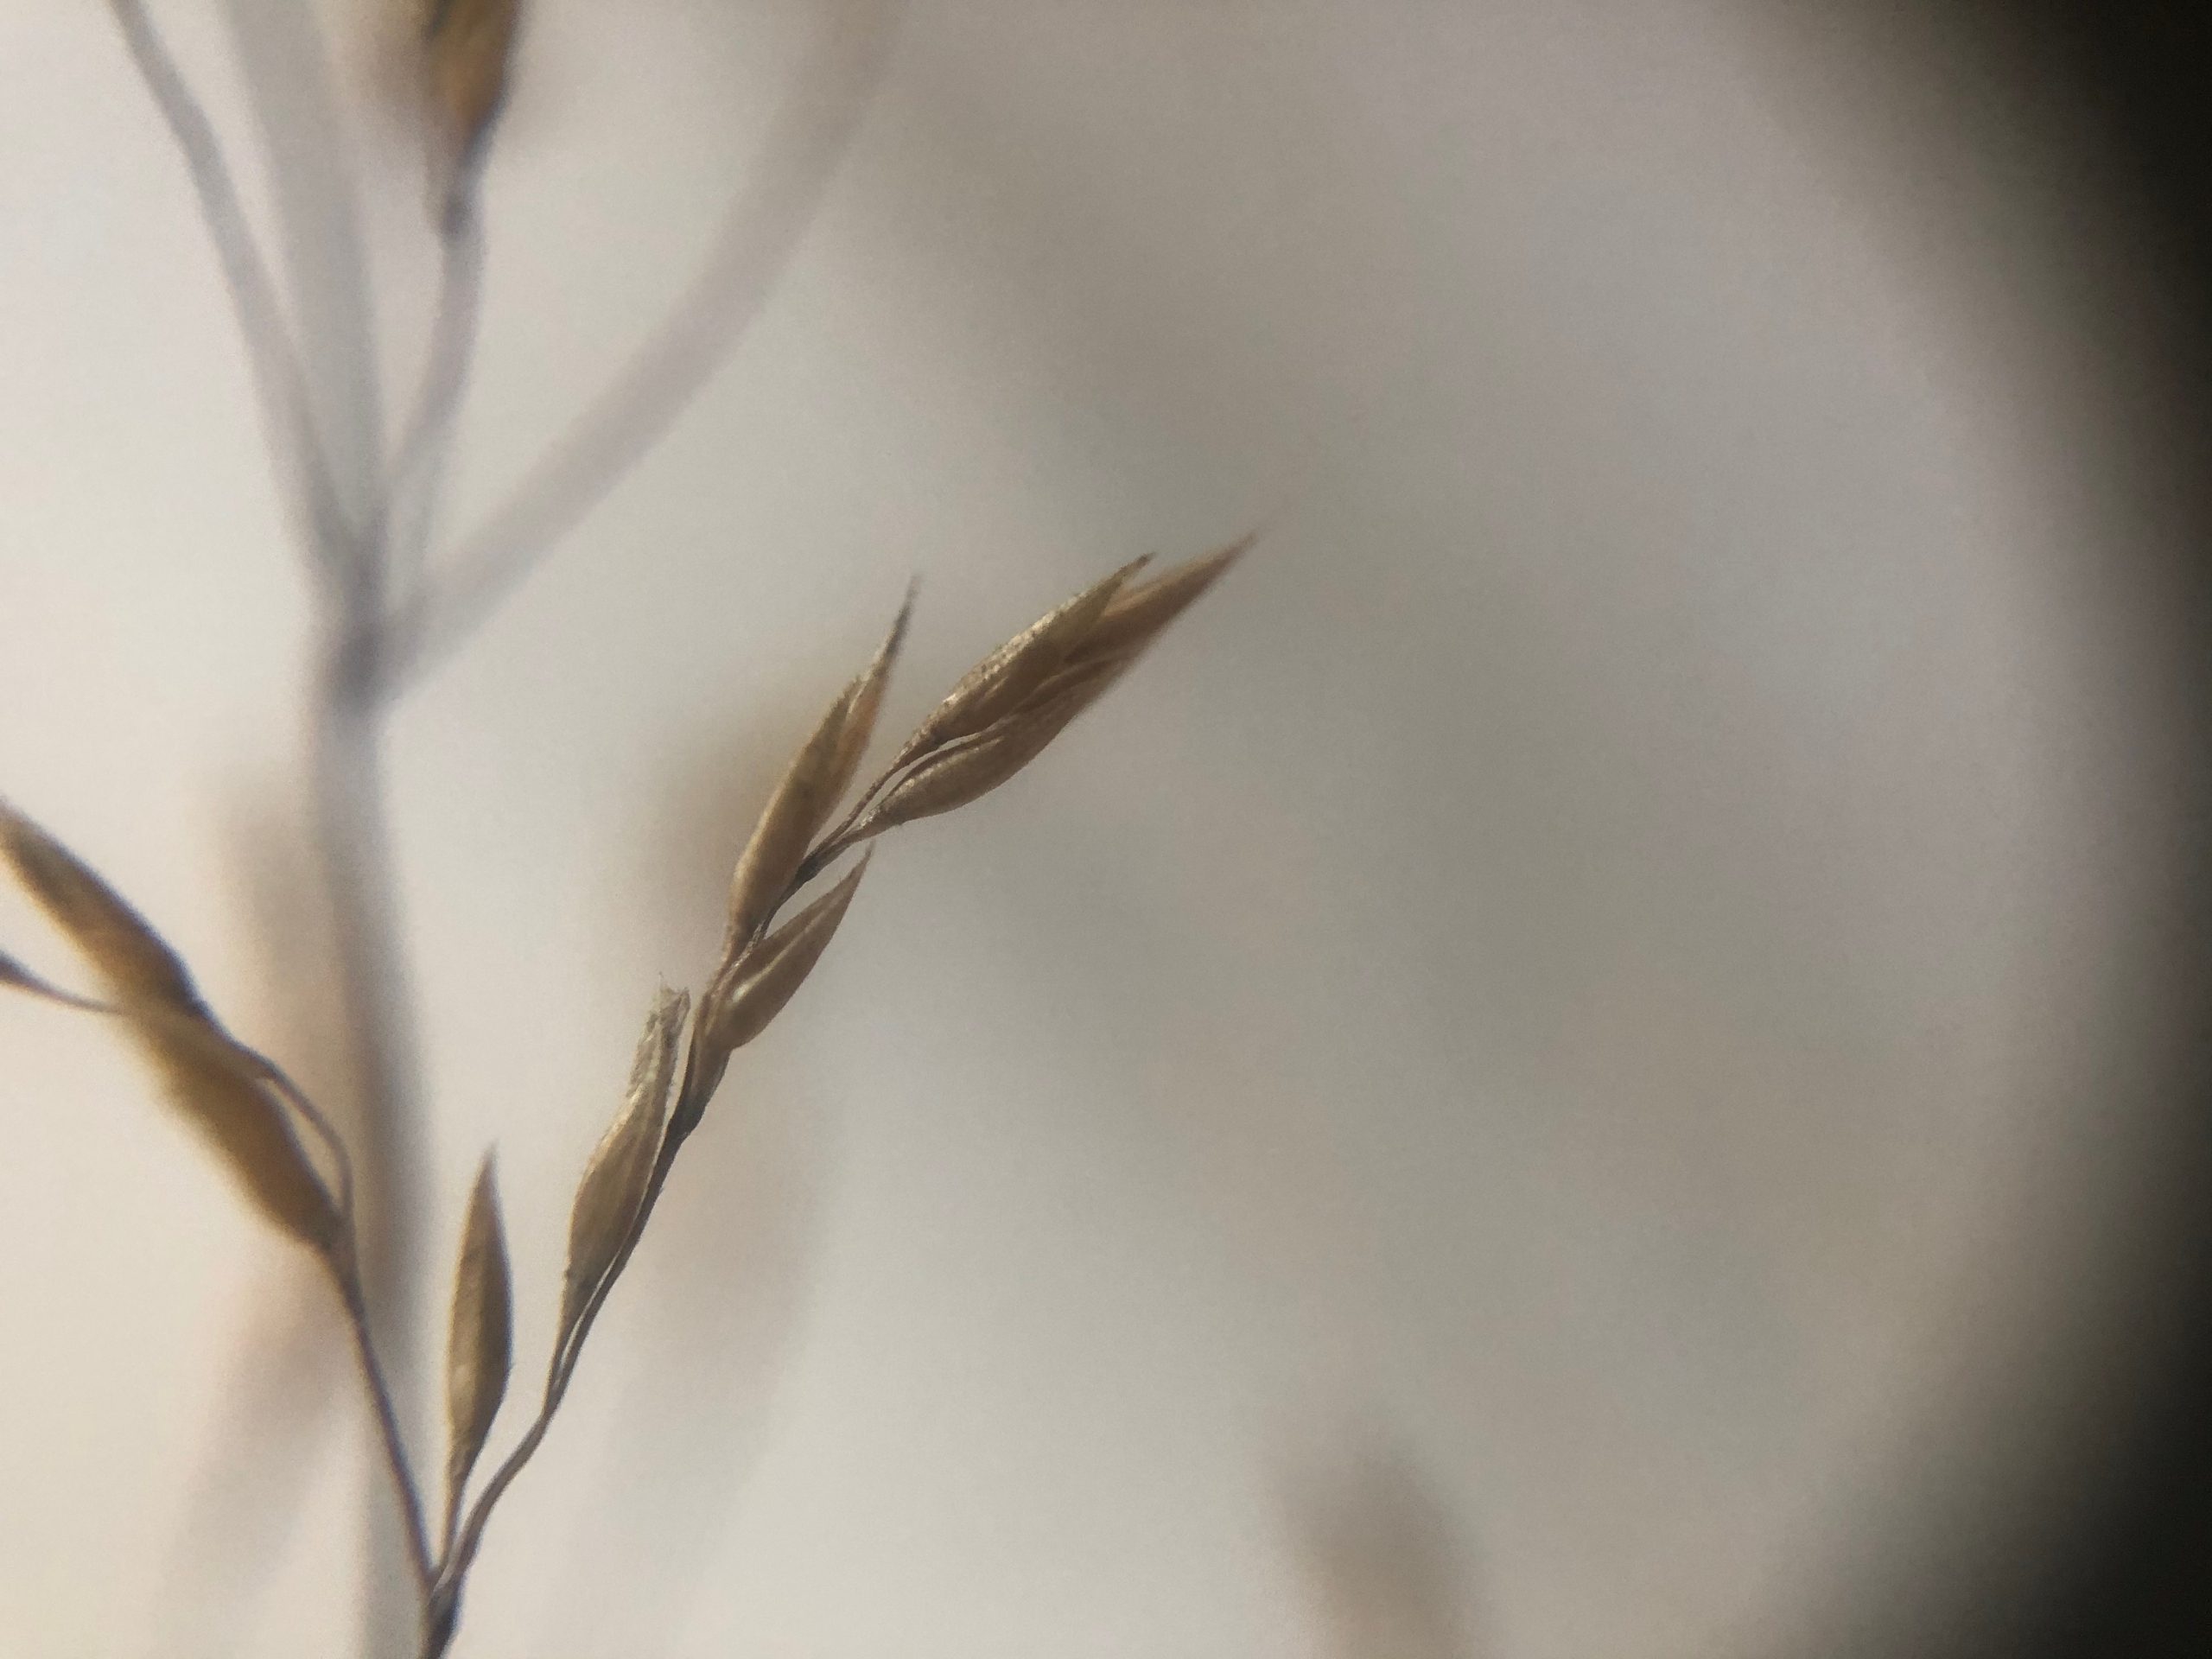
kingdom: Plantae
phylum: Tracheophyta
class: Liliopsida
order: Poales
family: Poaceae
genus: Avenella
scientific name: Avenella flexuosa
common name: Bølget bunke
